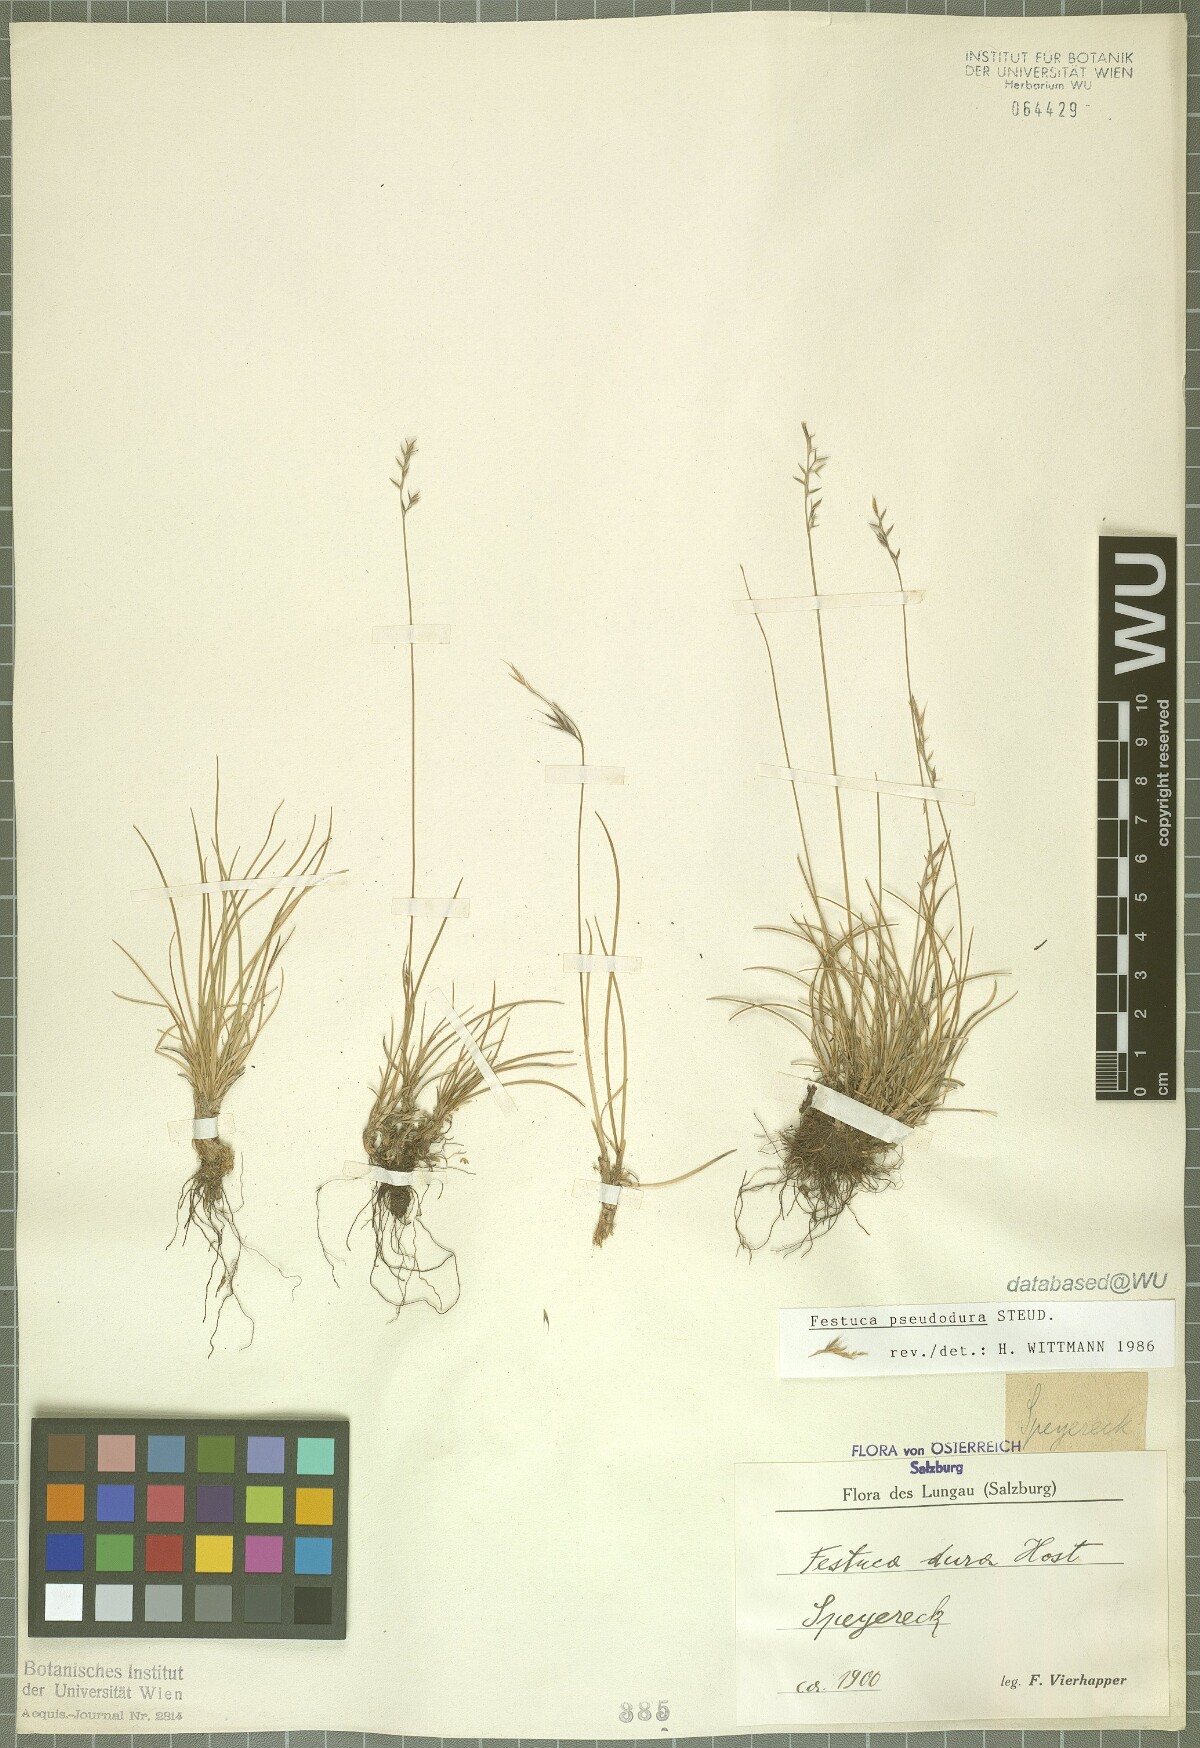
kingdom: Plantae
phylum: Tracheophyta
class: Liliopsida
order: Poales
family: Poaceae
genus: Festuca
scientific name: Festuca pseudodura
